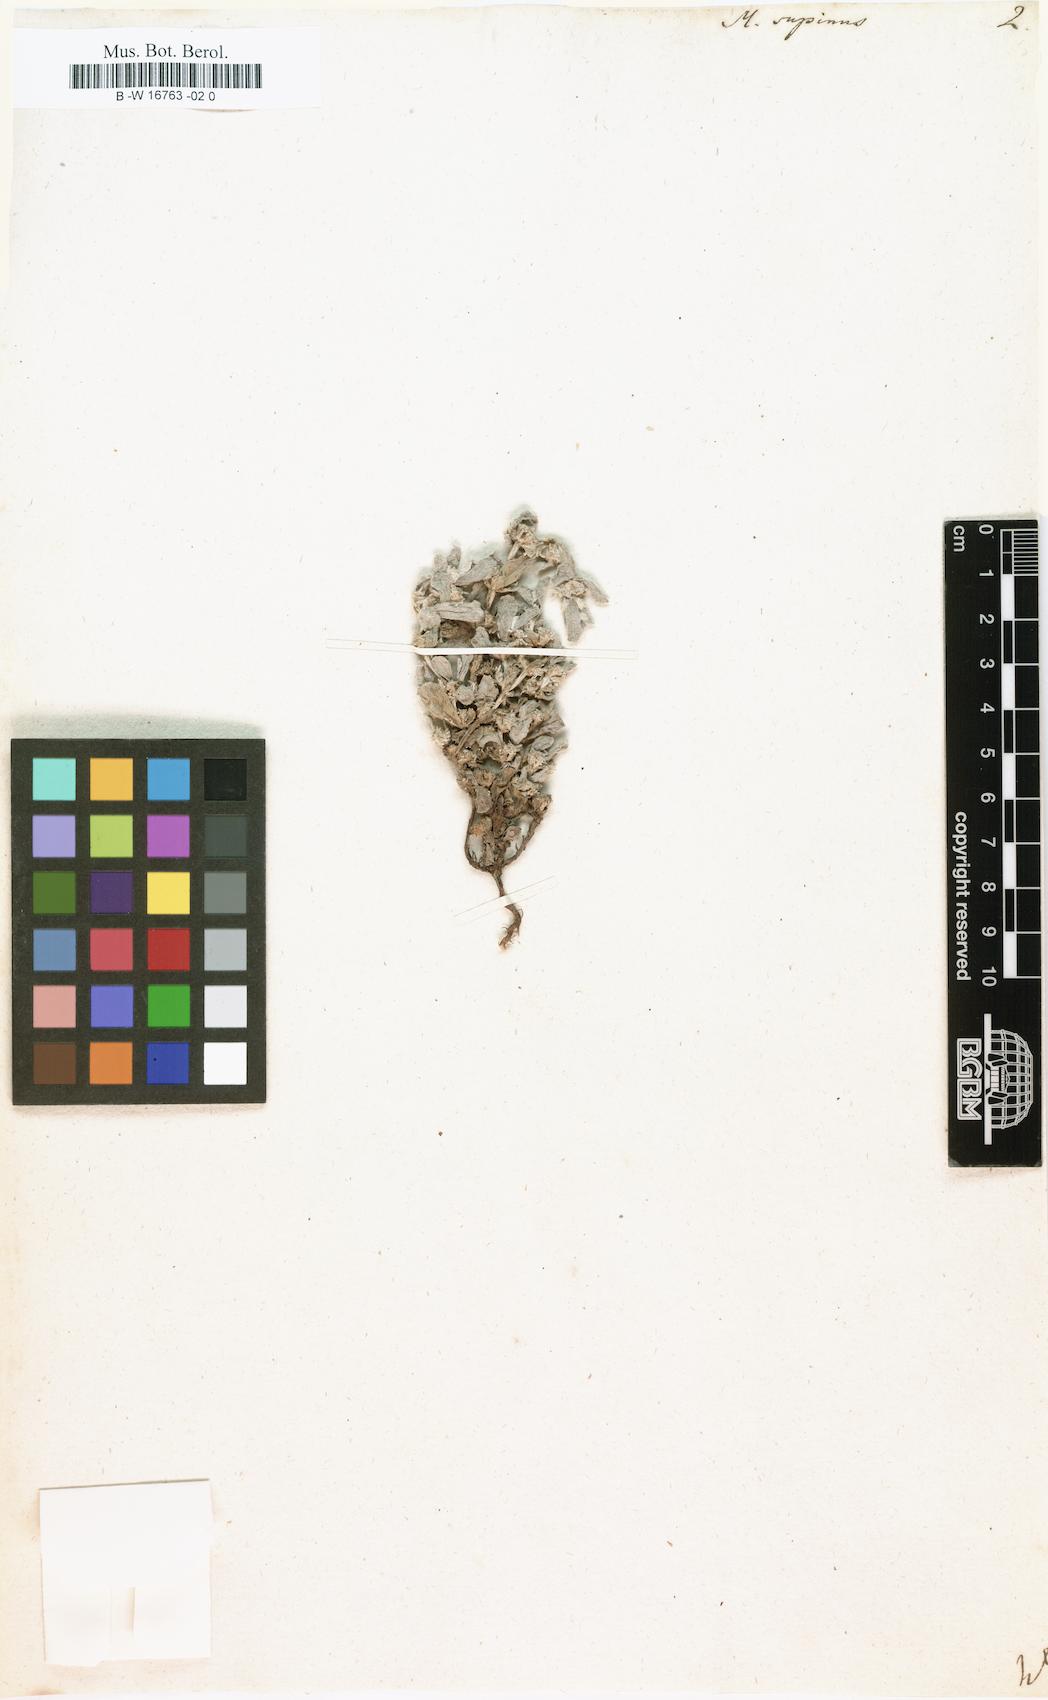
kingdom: Plantae
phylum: Tracheophyta
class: Magnoliopsida
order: Asterales
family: Asteraceae
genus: Micropus
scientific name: Micropus supinus
